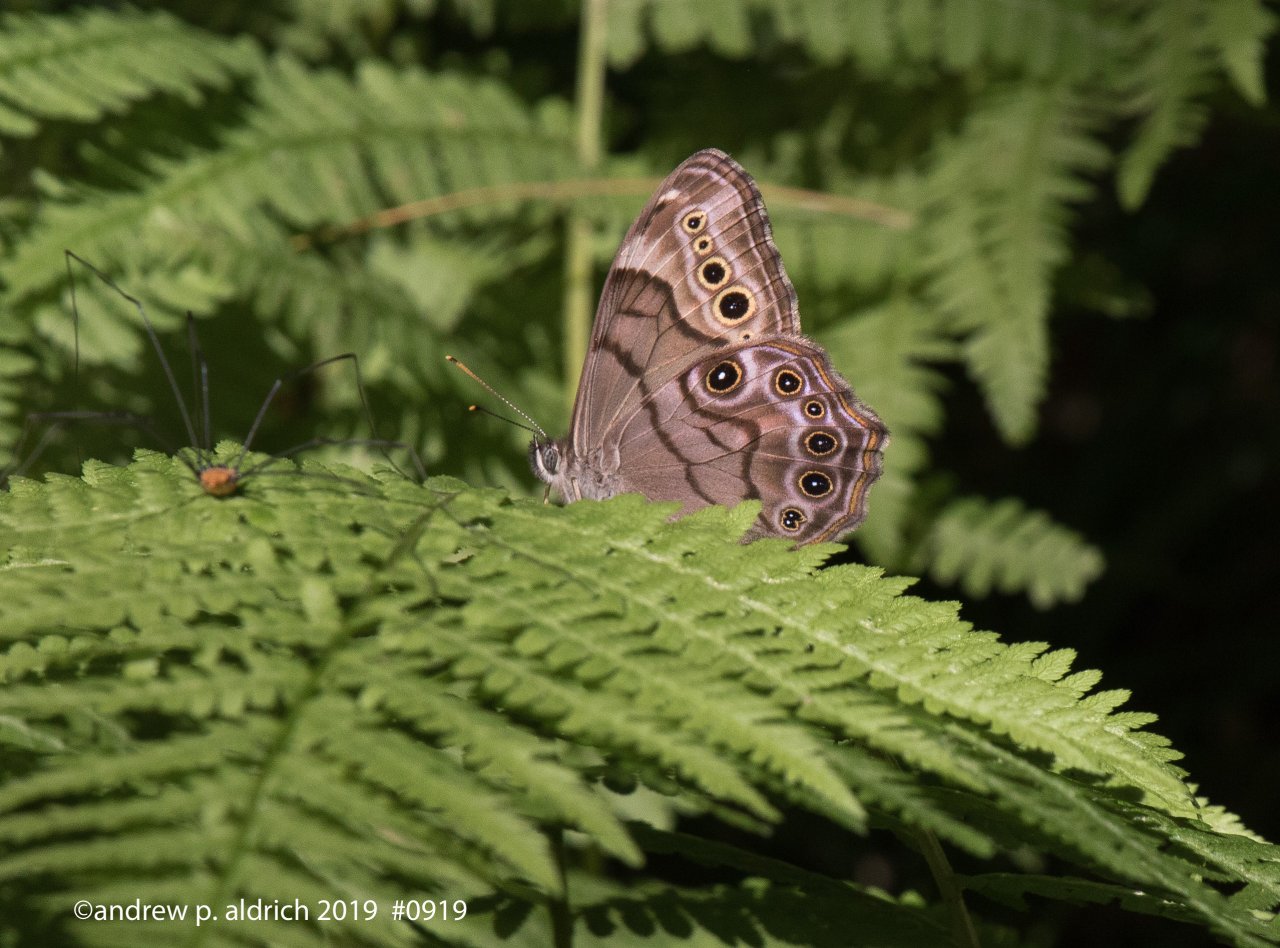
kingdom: Animalia
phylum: Arthropoda
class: Insecta
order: Lepidoptera
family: Nymphalidae
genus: Lethe
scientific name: Lethe anthedon
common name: Northern Pearly-Eye
